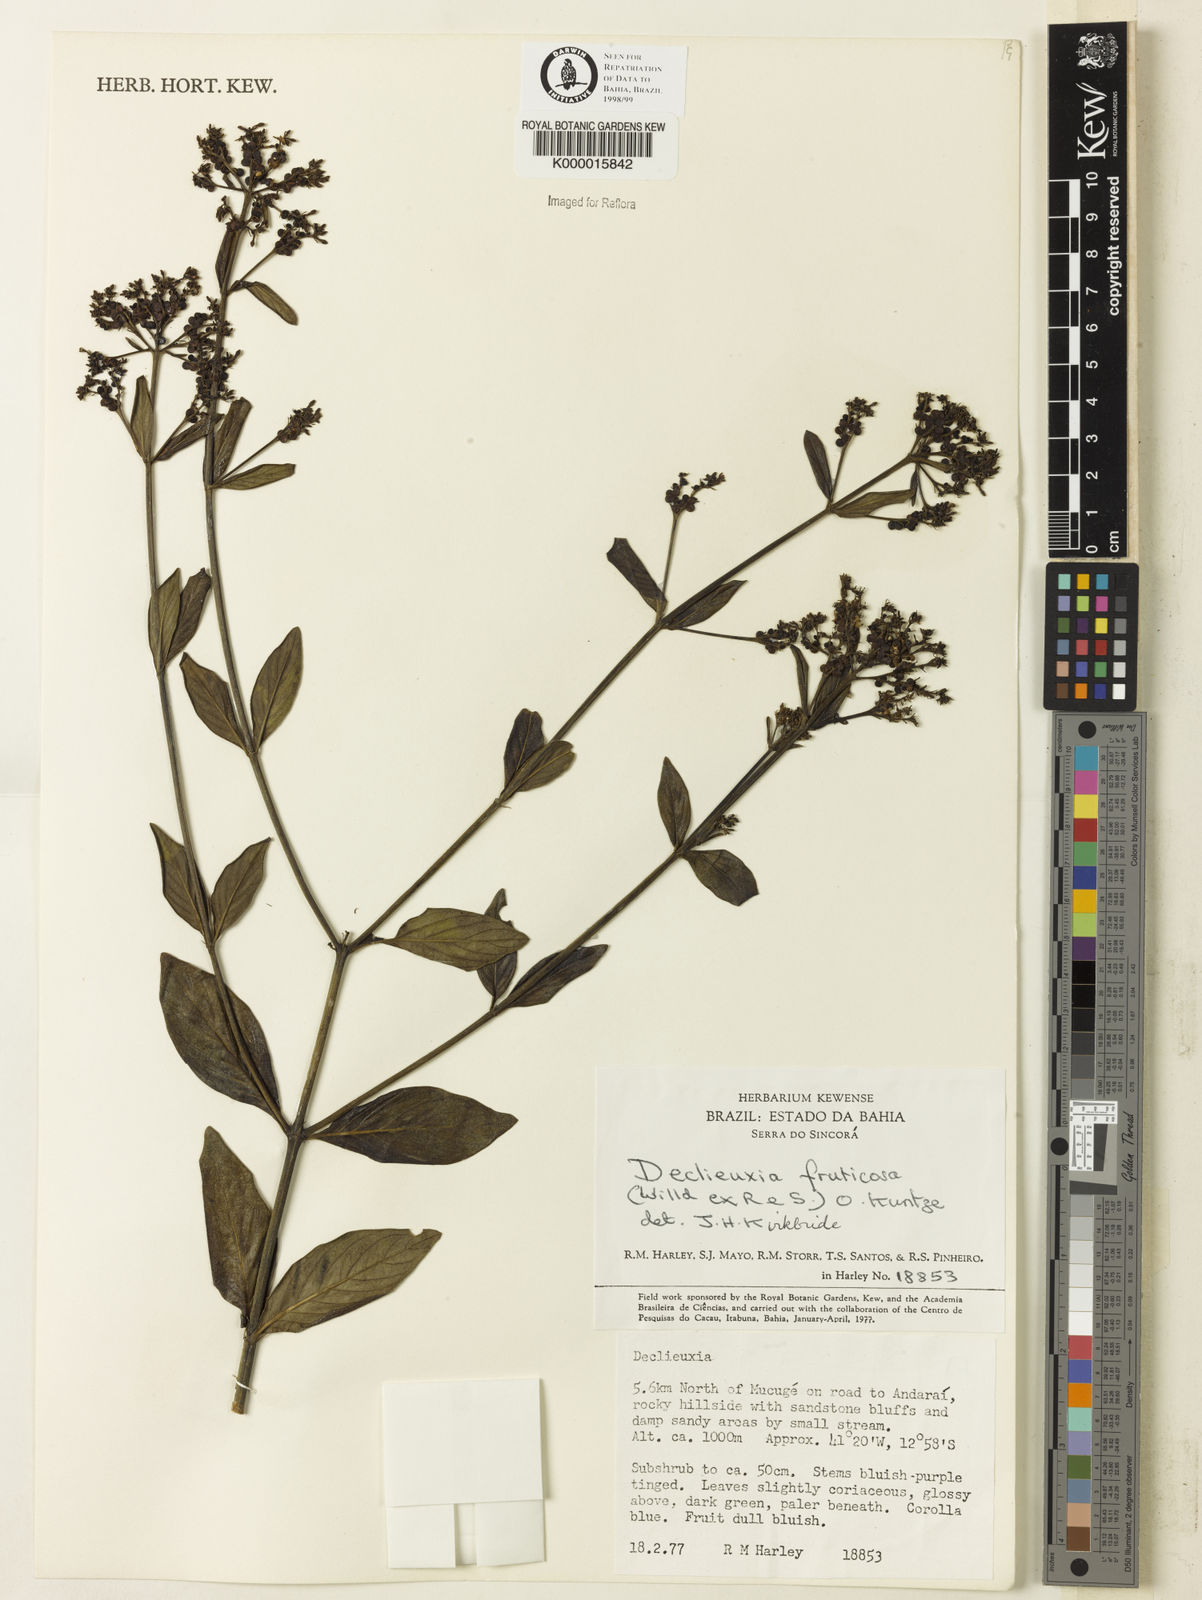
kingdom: Plantae
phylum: Tracheophyta
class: Magnoliopsida
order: Gentianales
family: Rubiaceae
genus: Declieuxia
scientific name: Declieuxia fruticosa
